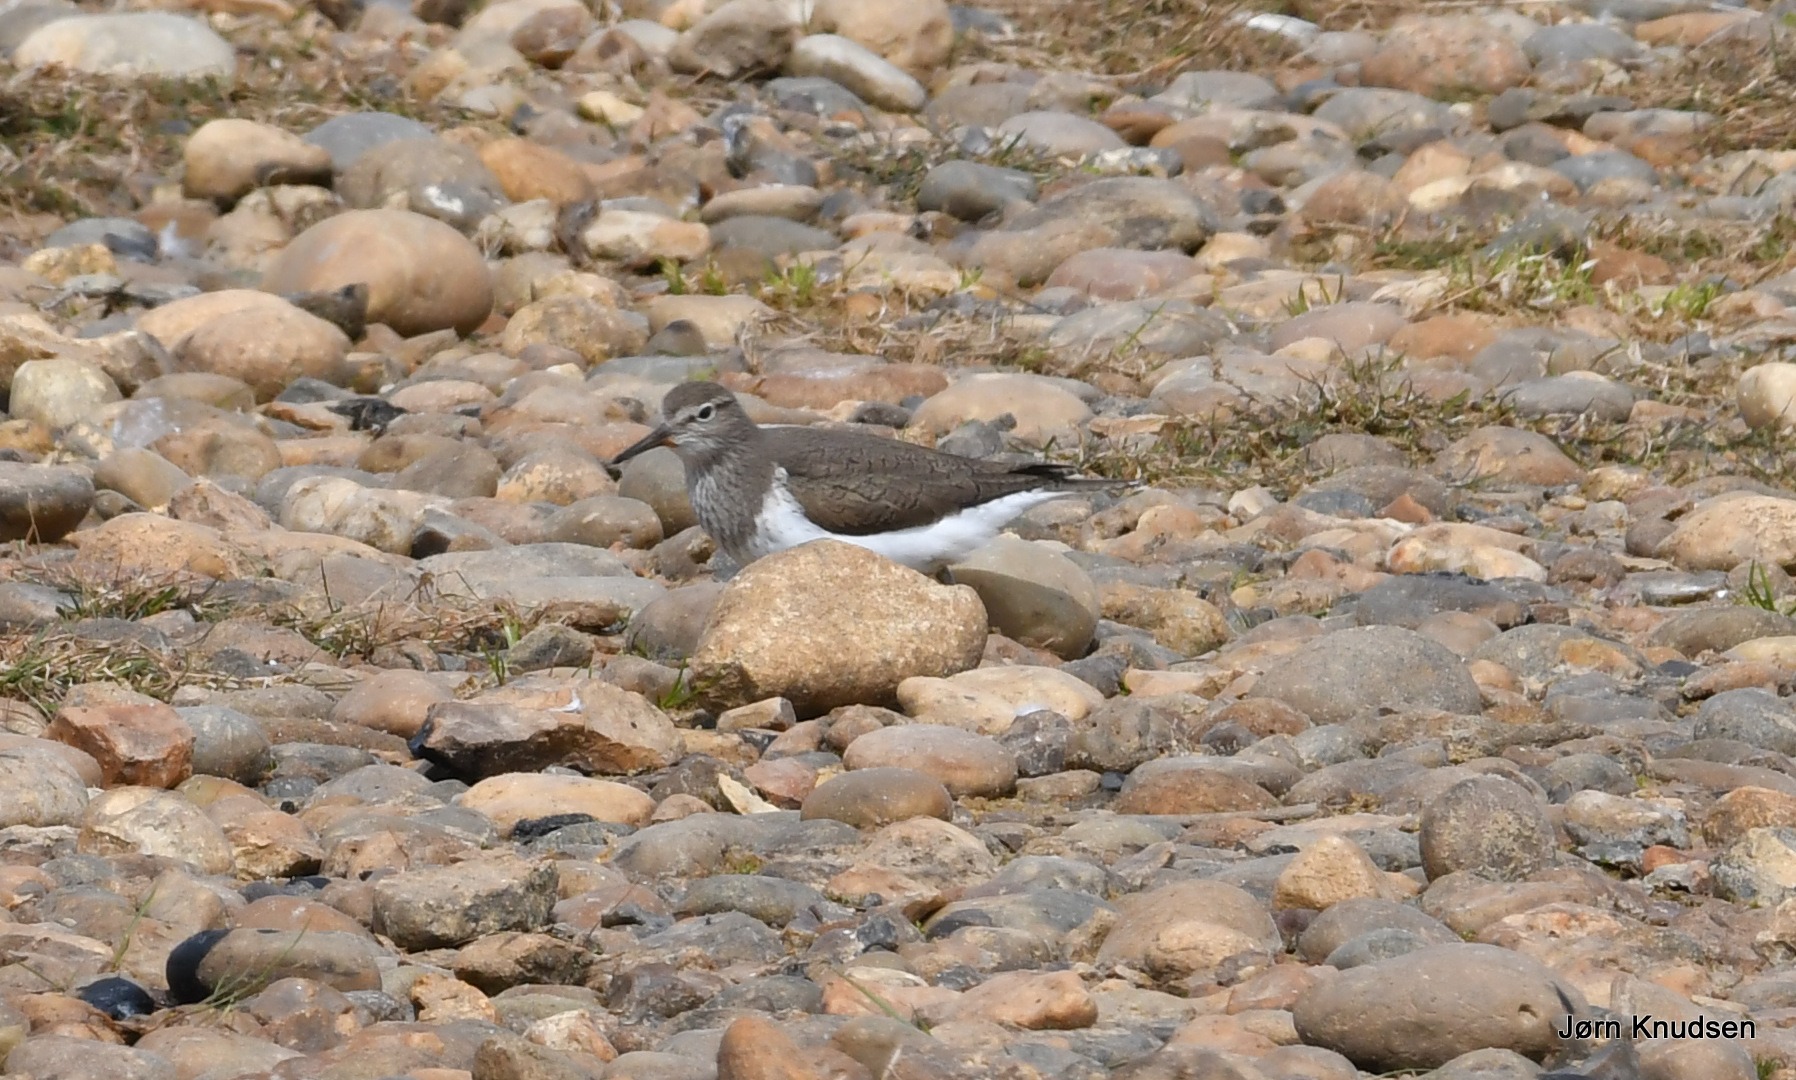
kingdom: Animalia
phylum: Chordata
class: Aves
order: Charadriiformes
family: Scolopacidae
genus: Actitis
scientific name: Actitis hypoleucos
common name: Mudderklire
